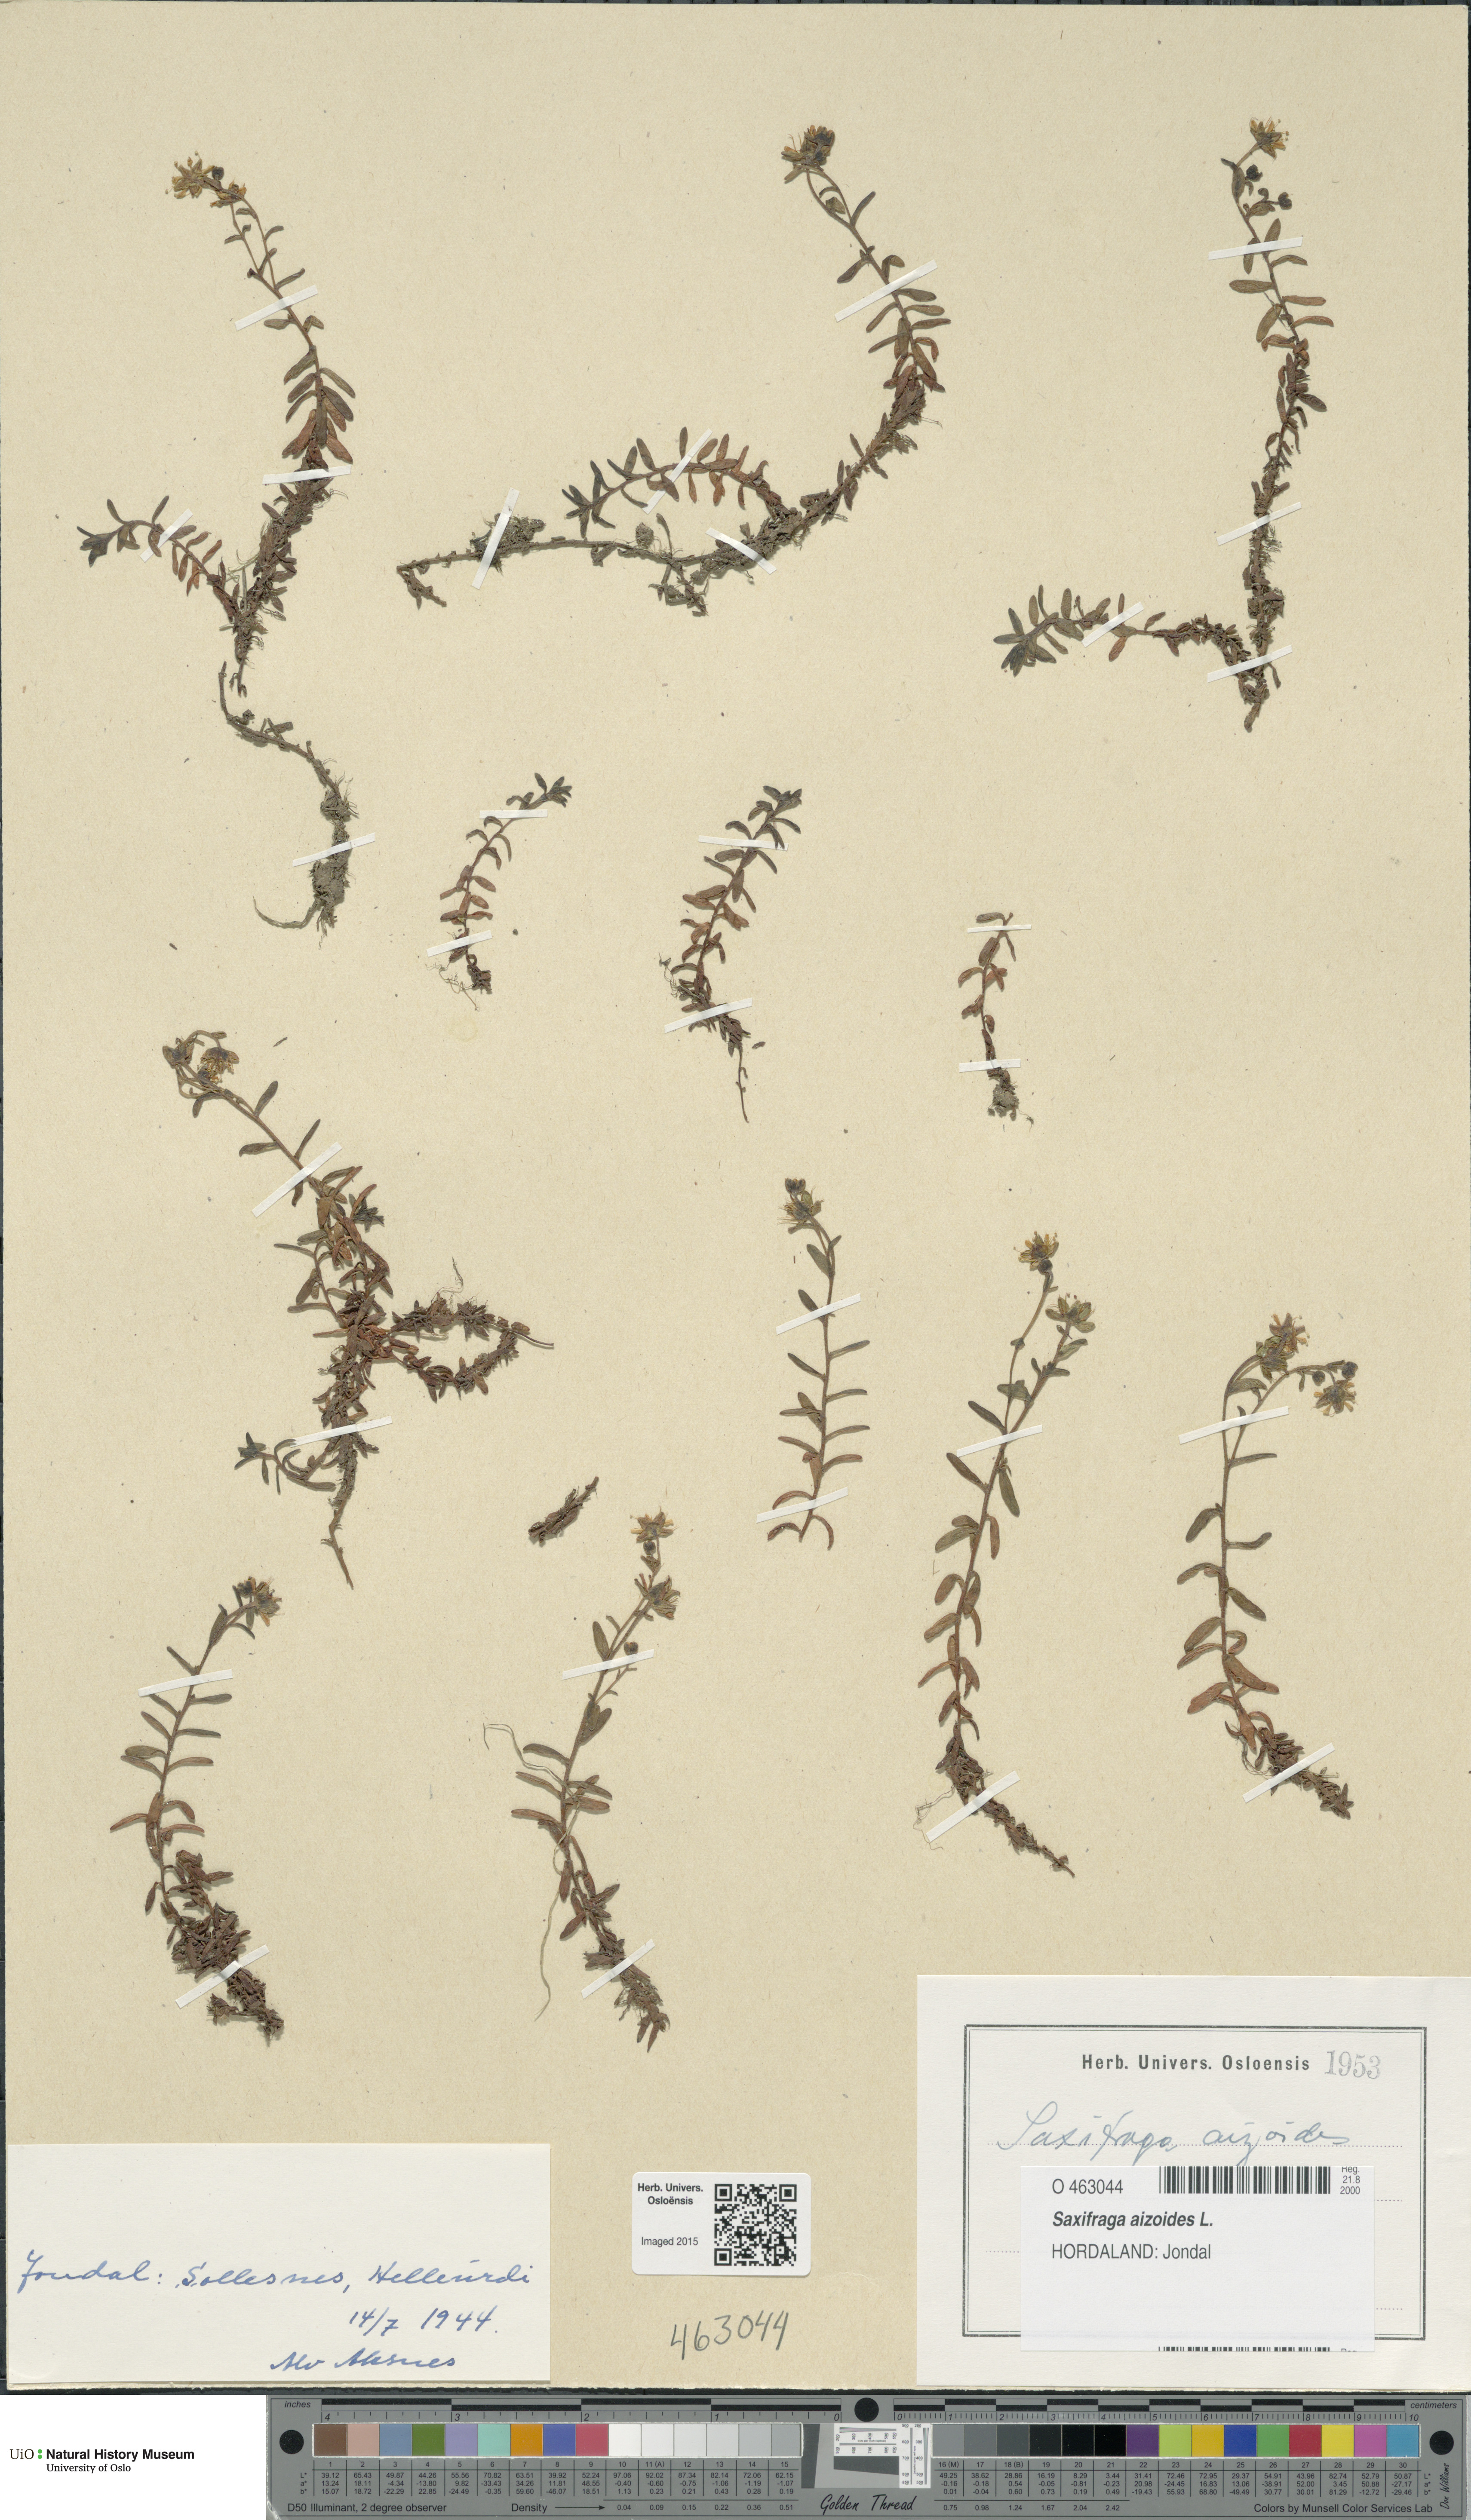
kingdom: Plantae
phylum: Tracheophyta
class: Magnoliopsida
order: Saxifragales
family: Saxifragaceae
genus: Saxifraga
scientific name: Saxifraga aizoides
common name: Yellow mountain saxifrage
